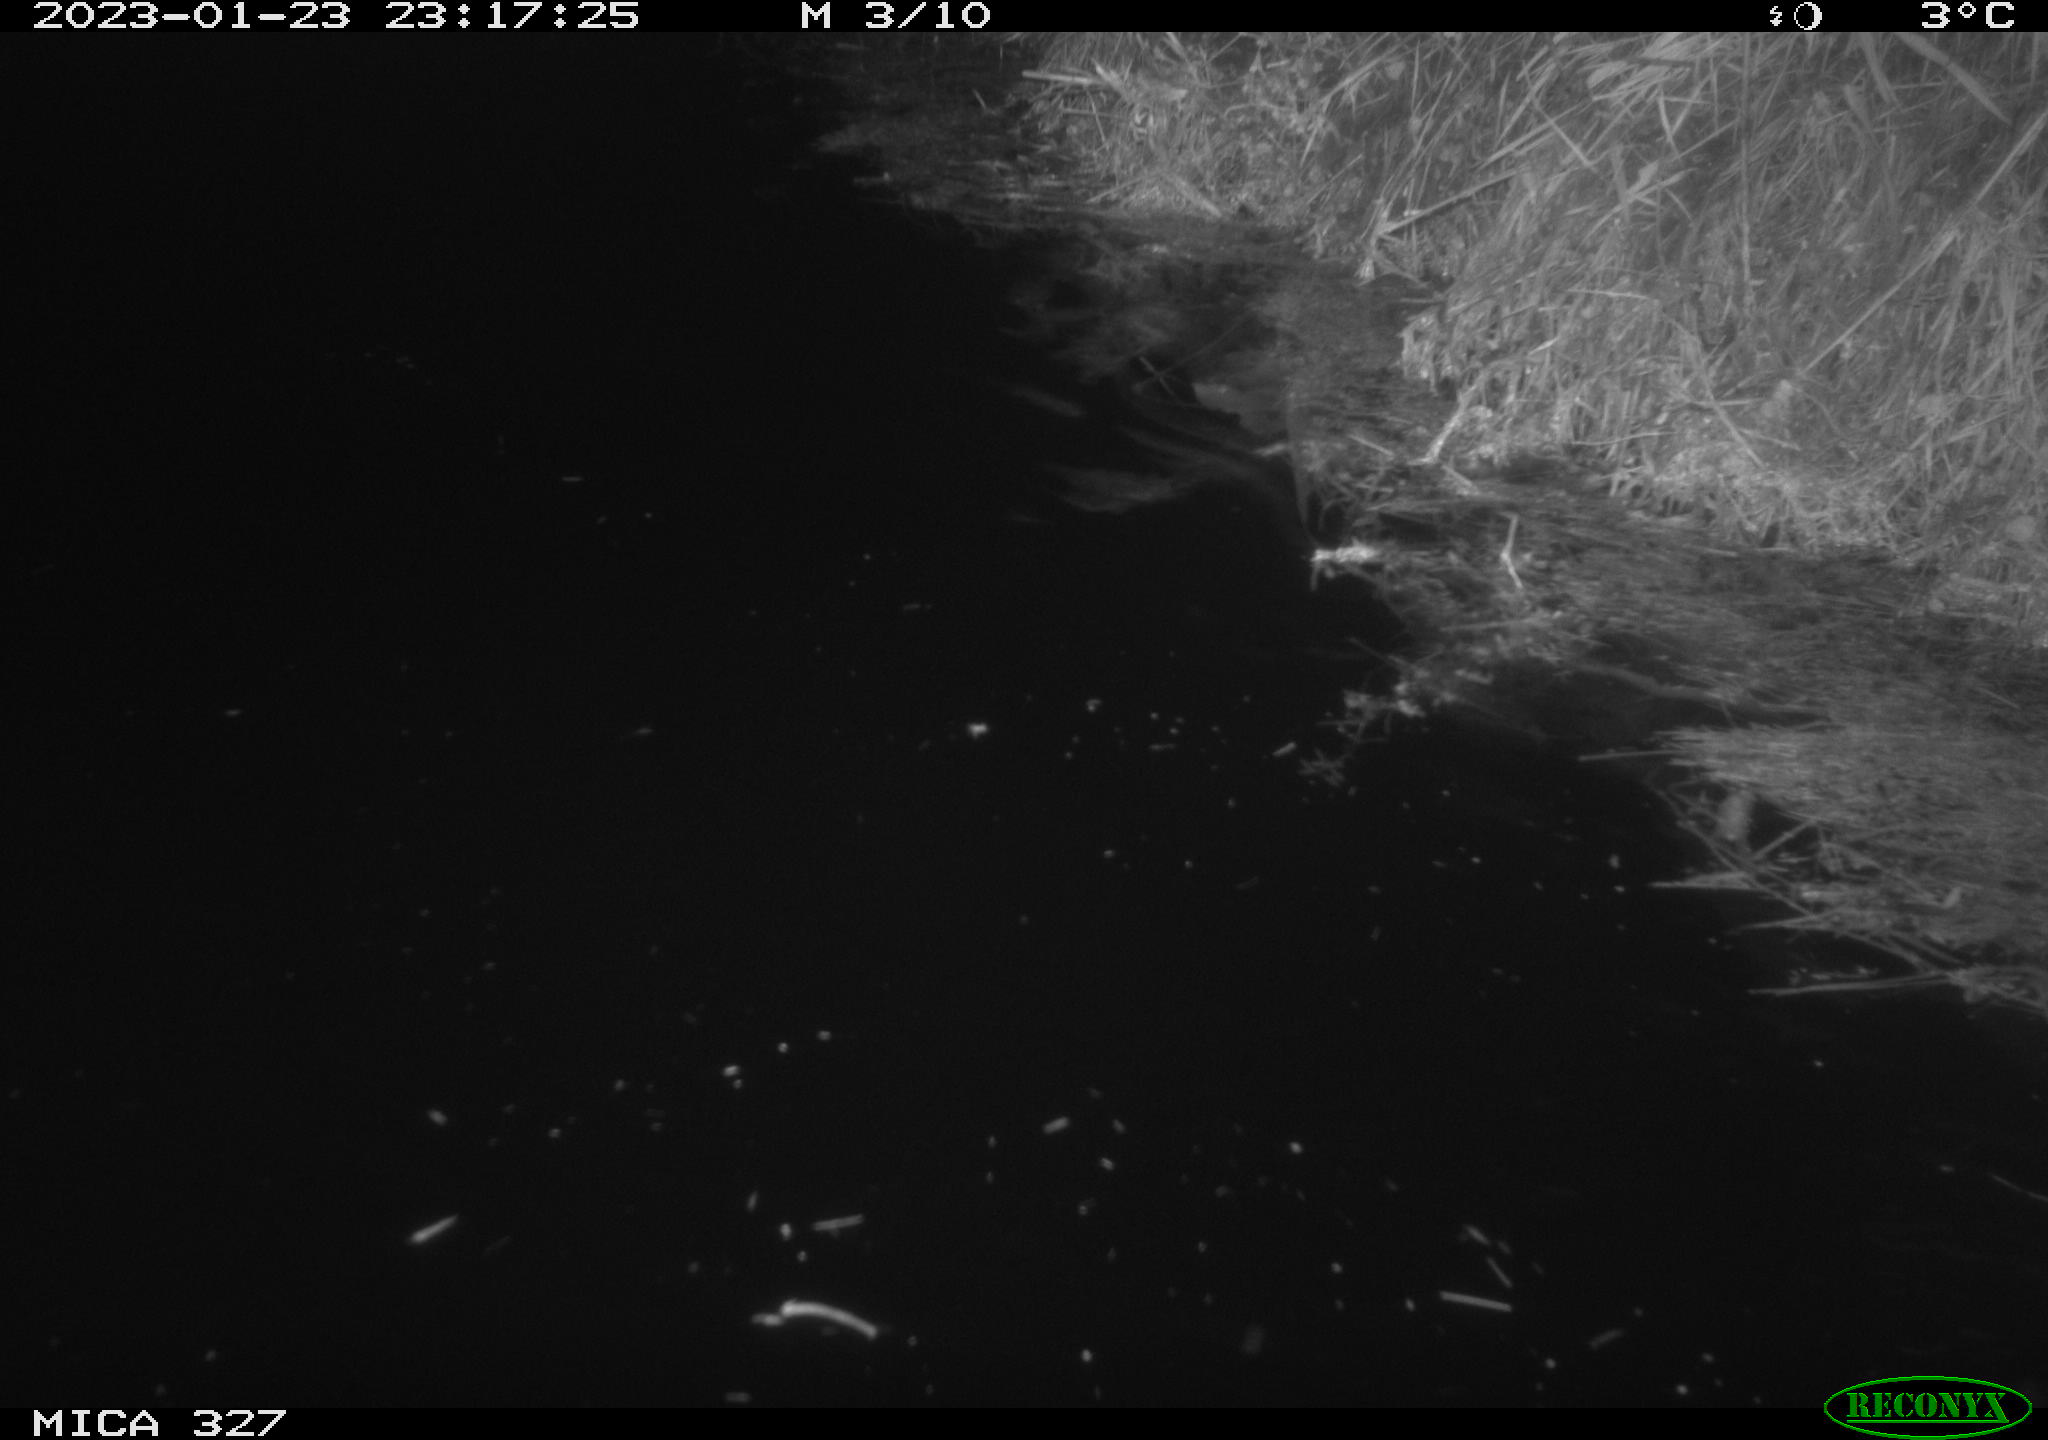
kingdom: Animalia
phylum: Chordata
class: Mammalia
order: Rodentia
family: Cricetidae
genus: Ondatra
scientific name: Ondatra zibethicus
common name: Muskrat
